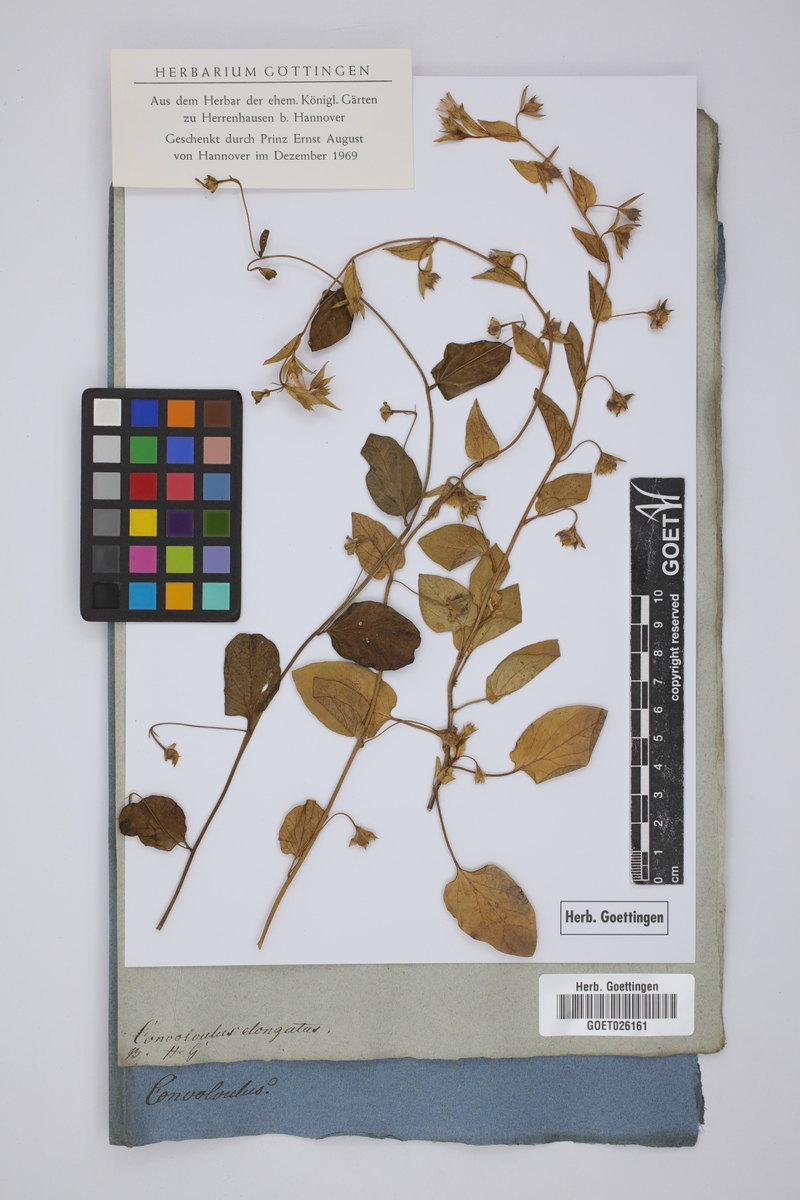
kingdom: Plantae
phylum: Tracheophyta
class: Magnoliopsida
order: Solanales
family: Convolvulaceae
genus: Convolvulus
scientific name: Convolvulus siculus
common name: Small blue-convolvulus
